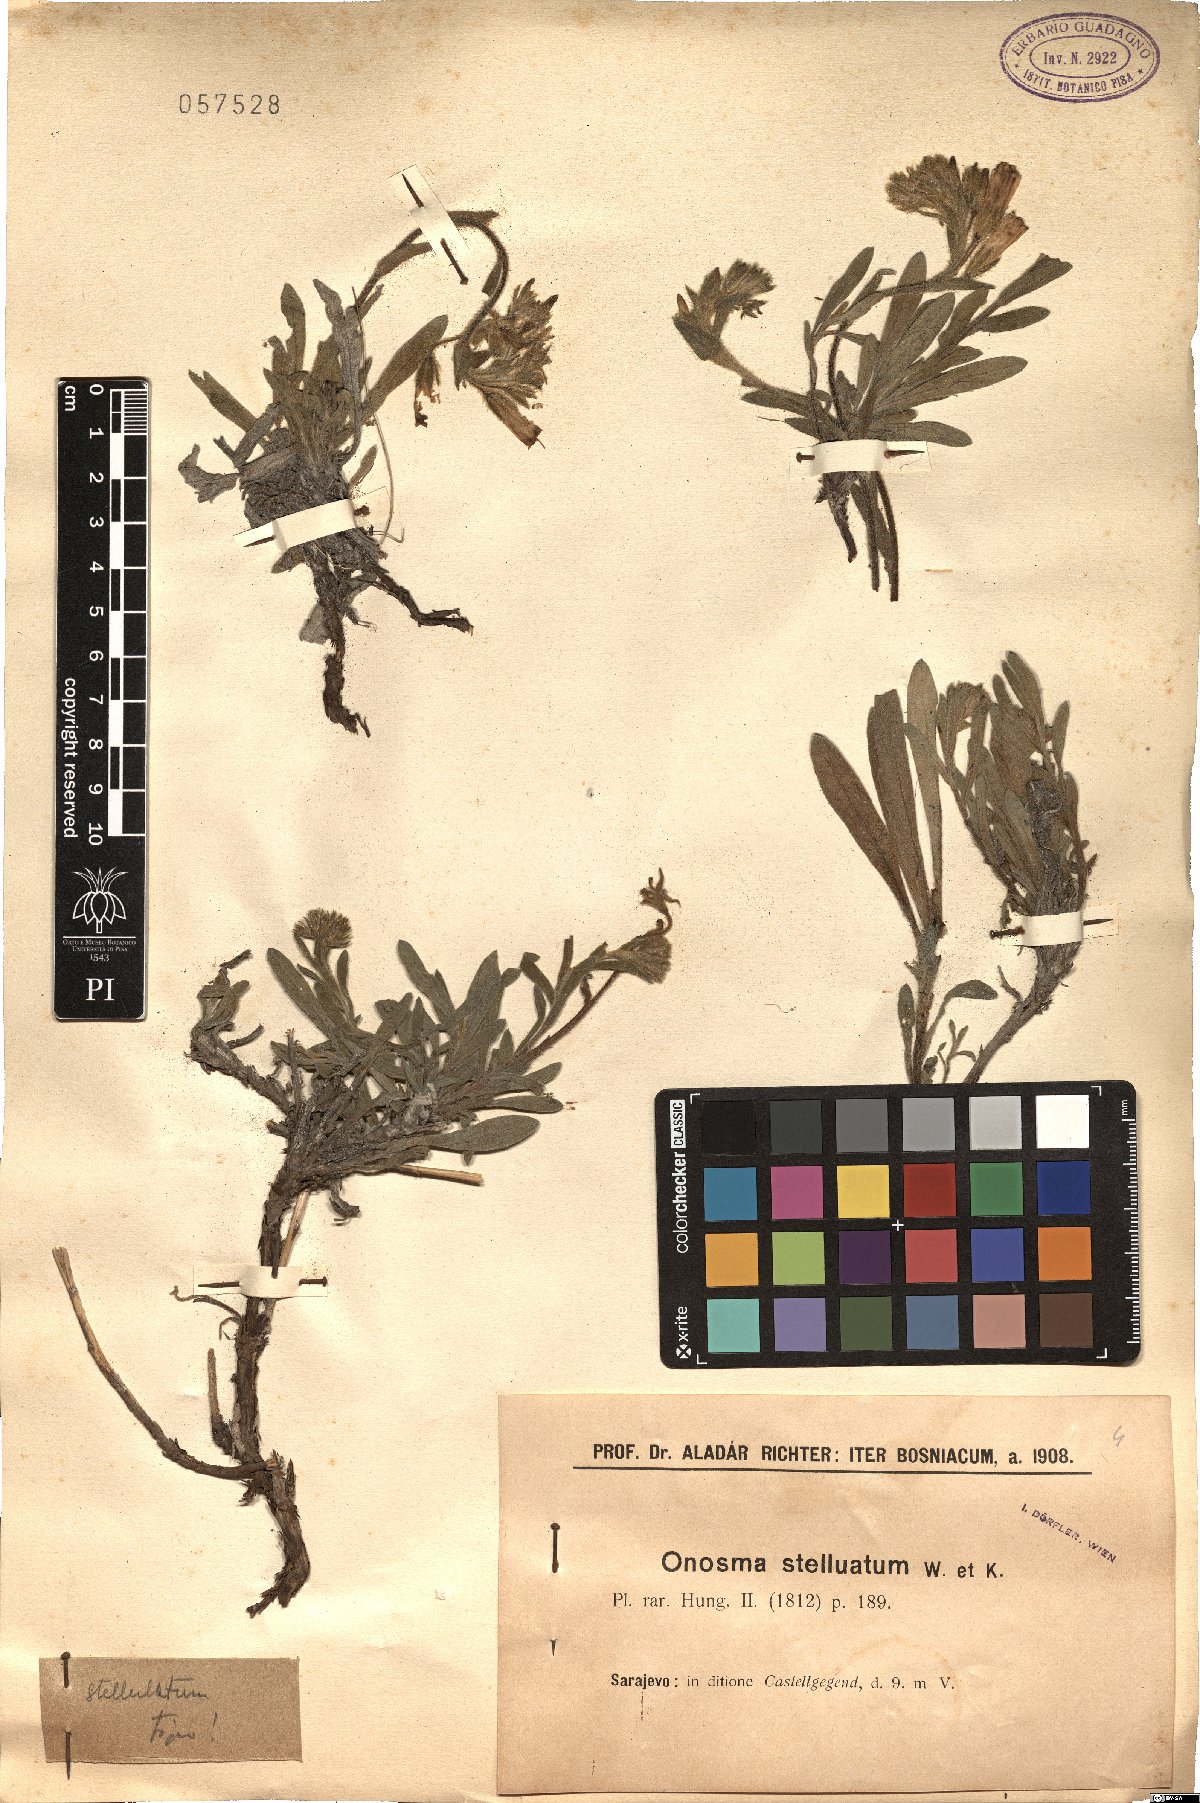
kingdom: Plantae
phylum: Tracheophyta
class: Magnoliopsida
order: Boraginales
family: Boraginaceae
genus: Onosma
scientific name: Onosma stellulata
